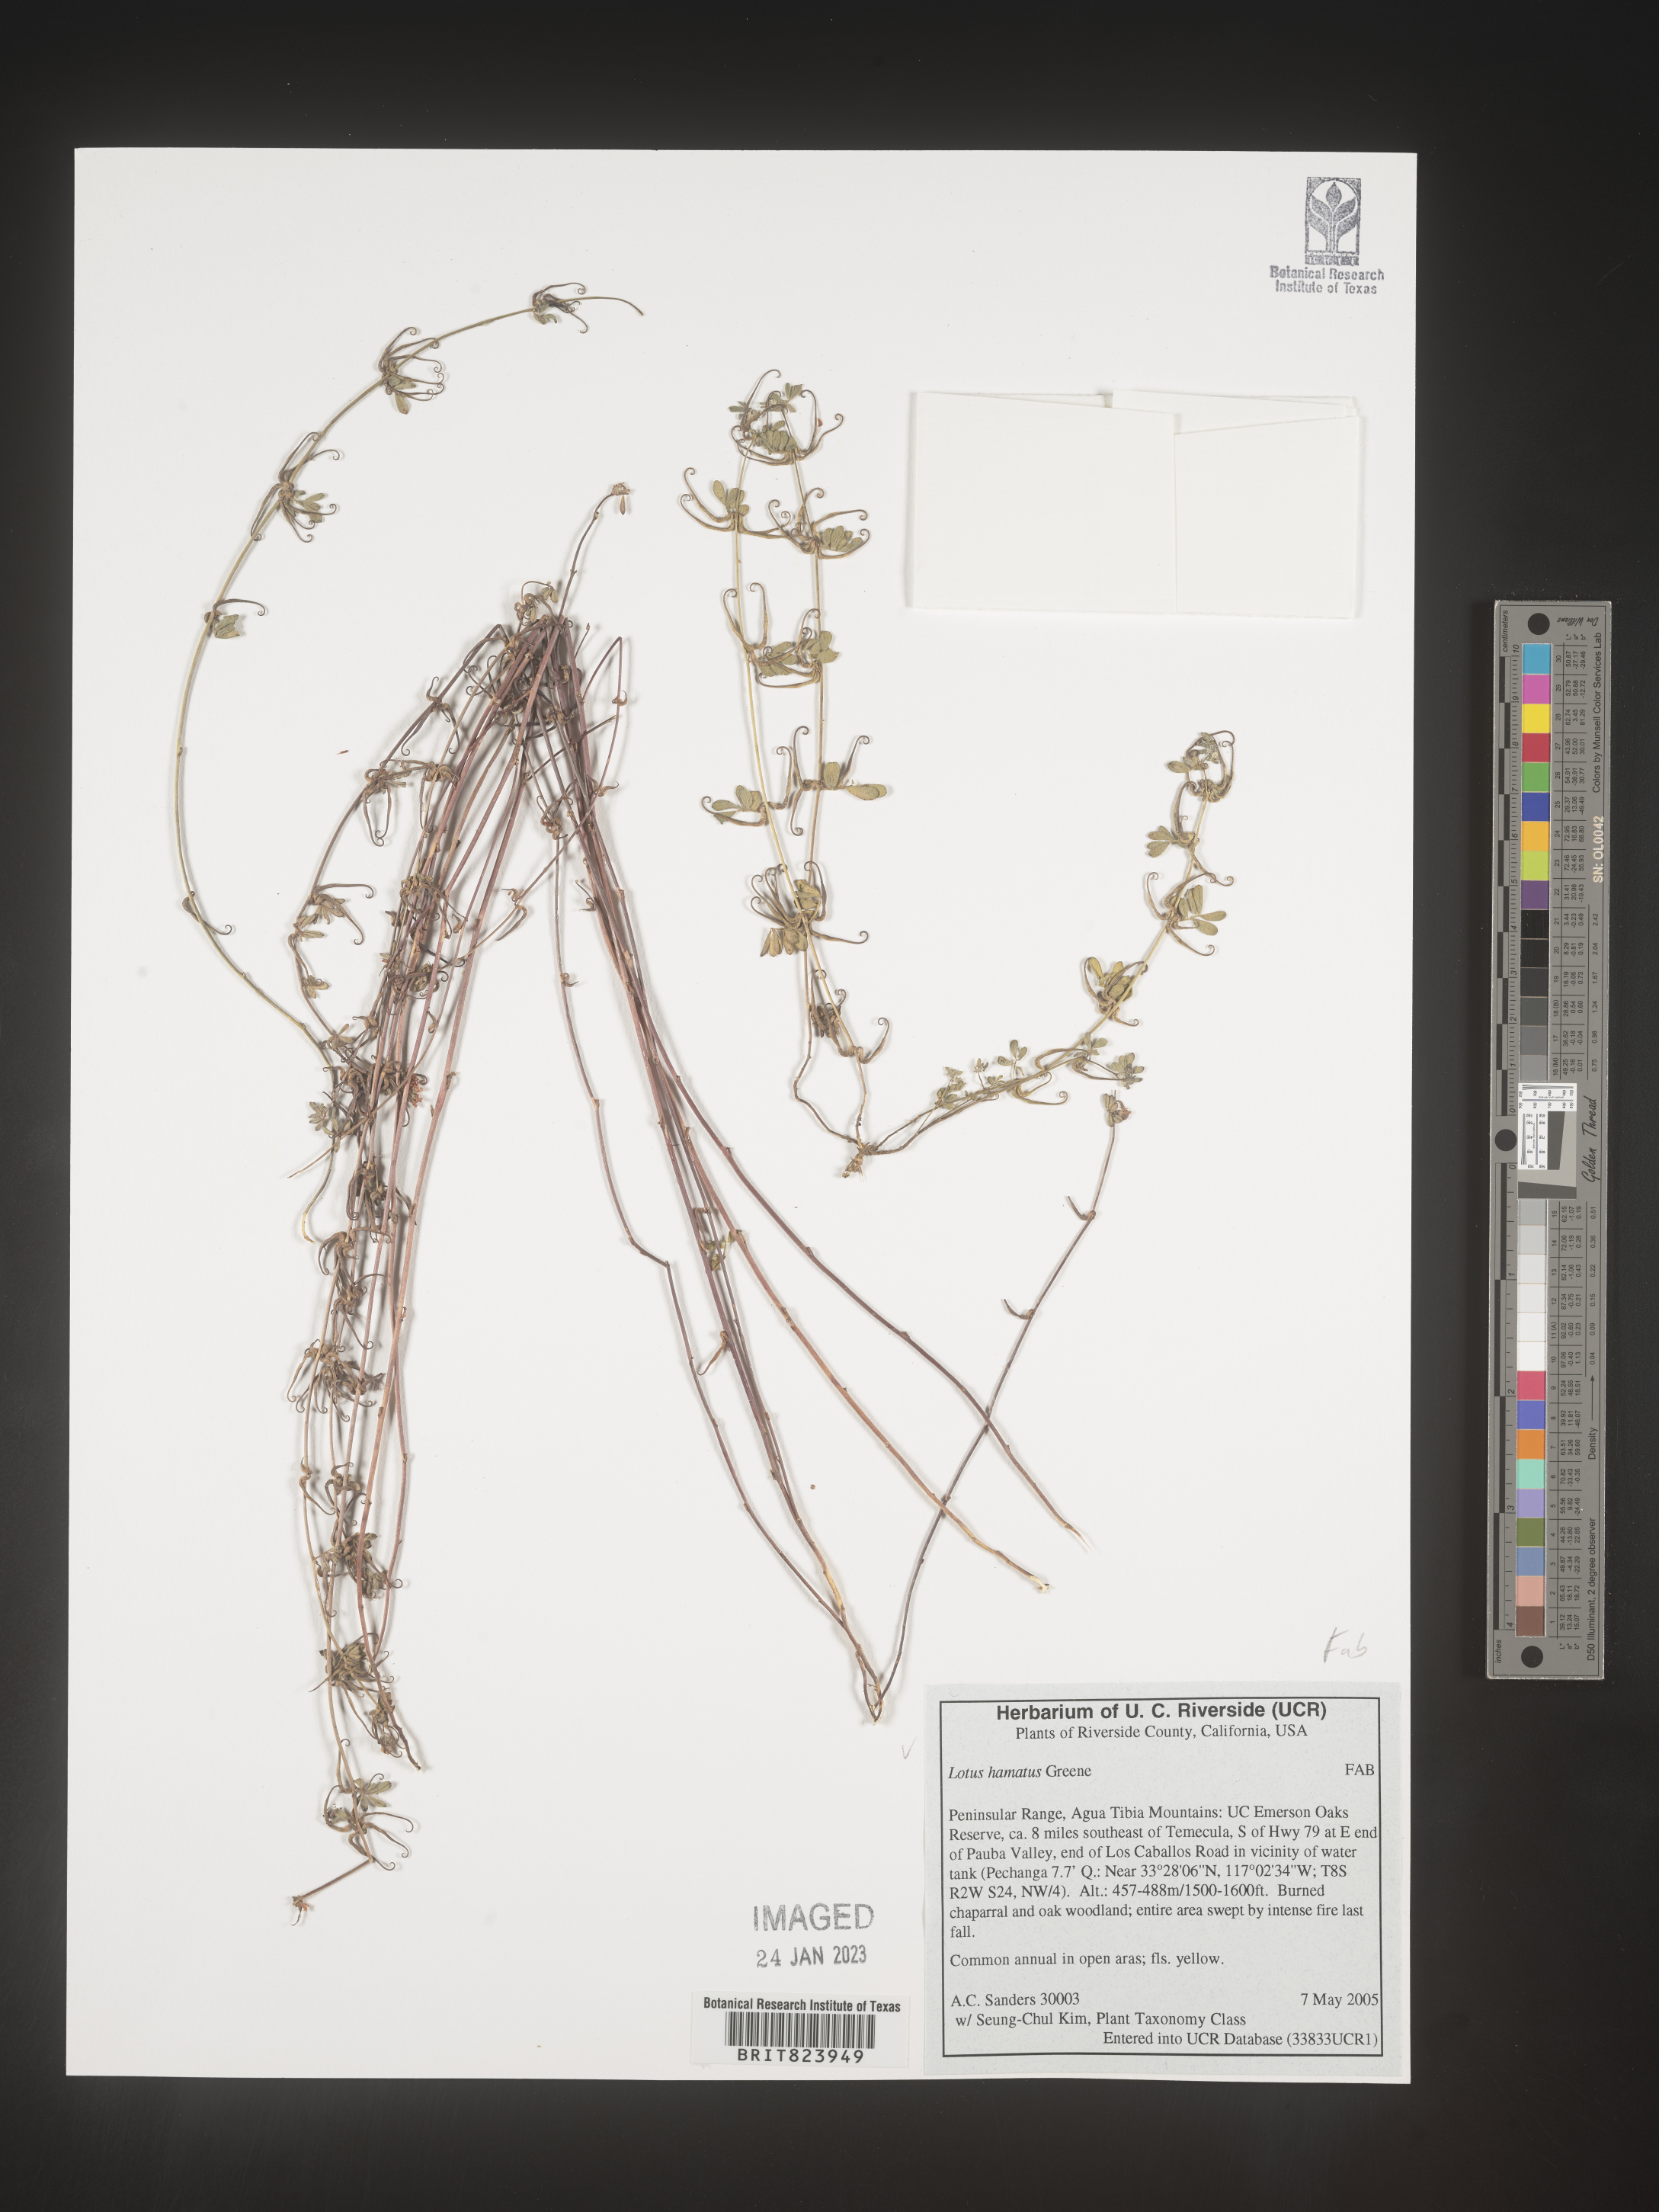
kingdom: Plantae
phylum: Tracheophyta
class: Magnoliopsida
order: Fabales
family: Fabaceae
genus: Lotus
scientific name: Lotus
